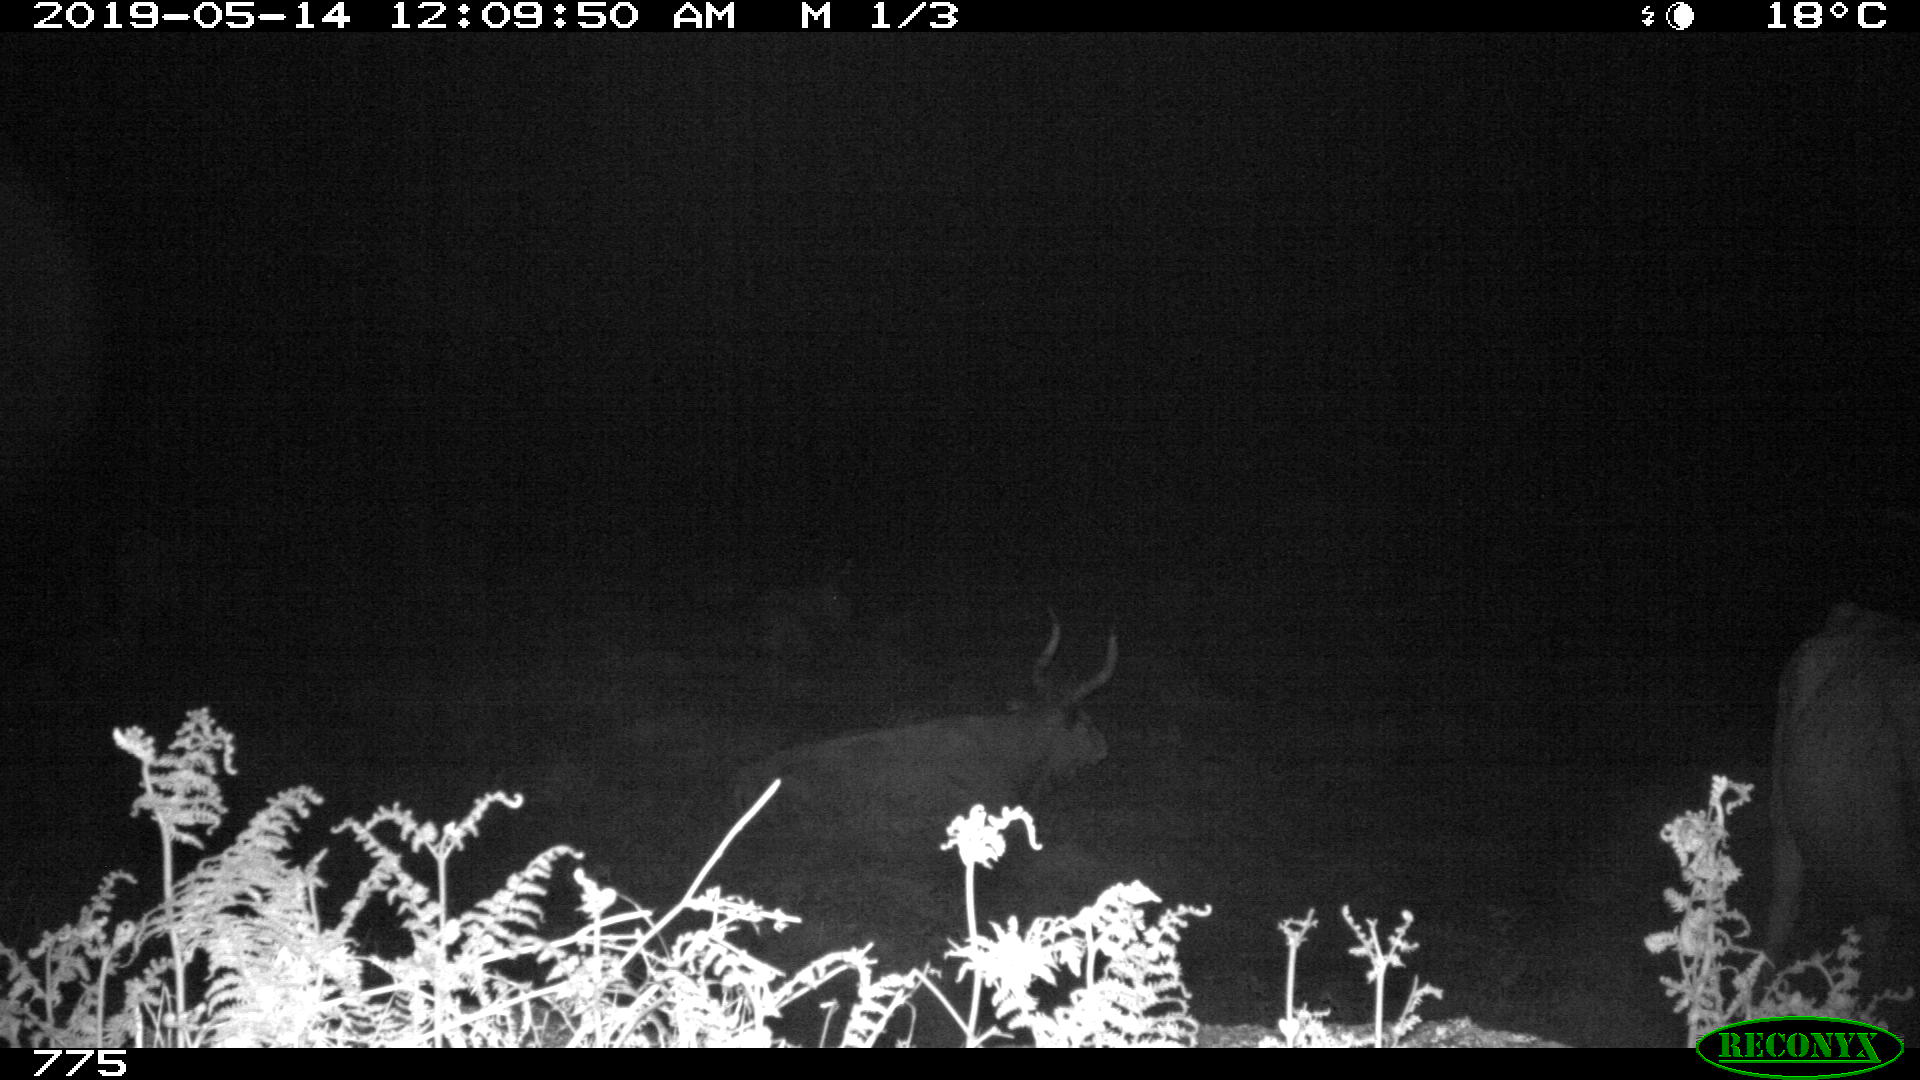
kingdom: Animalia
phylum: Chordata
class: Mammalia
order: Artiodactyla
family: Bovidae
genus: Bos
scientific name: Bos taurus
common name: Domesticated cattle
